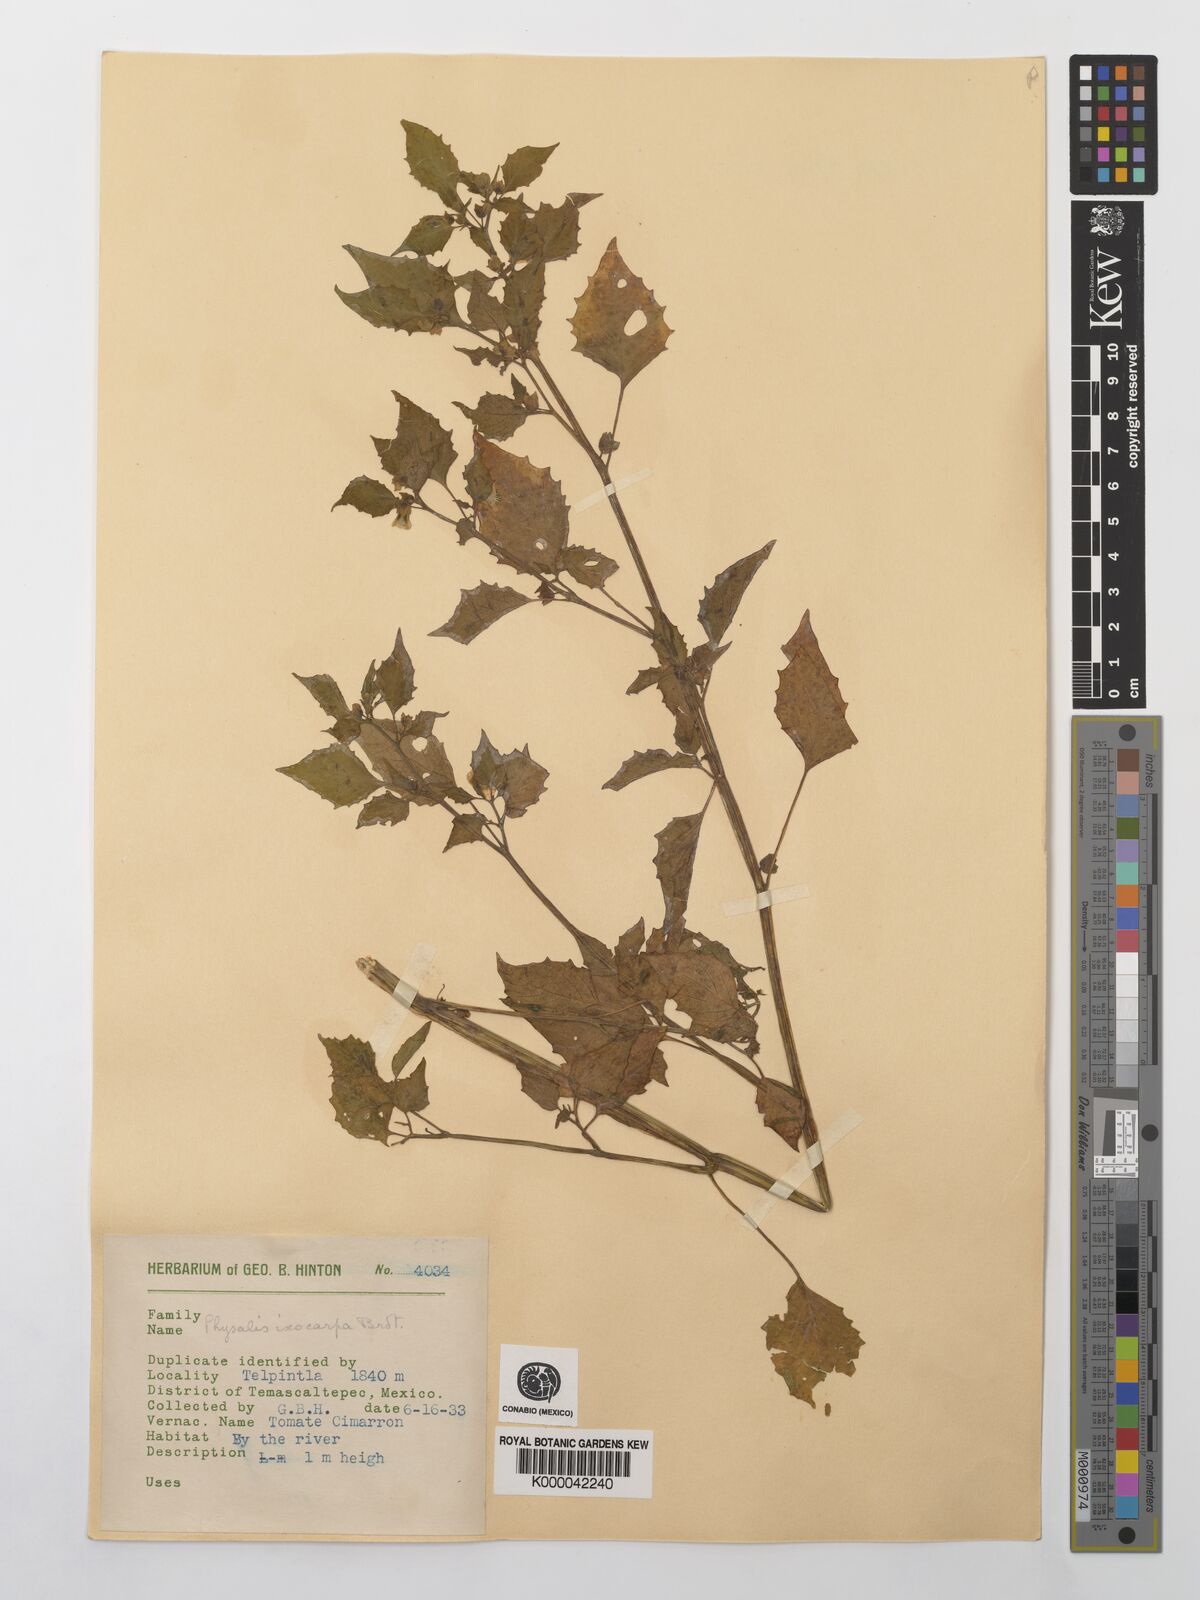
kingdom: Plantae
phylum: Tracheophyta
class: Magnoliopsida
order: Solanales
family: Solanaceae
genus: Physalis
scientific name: Physalis philadelphica
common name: Husk-tomato
